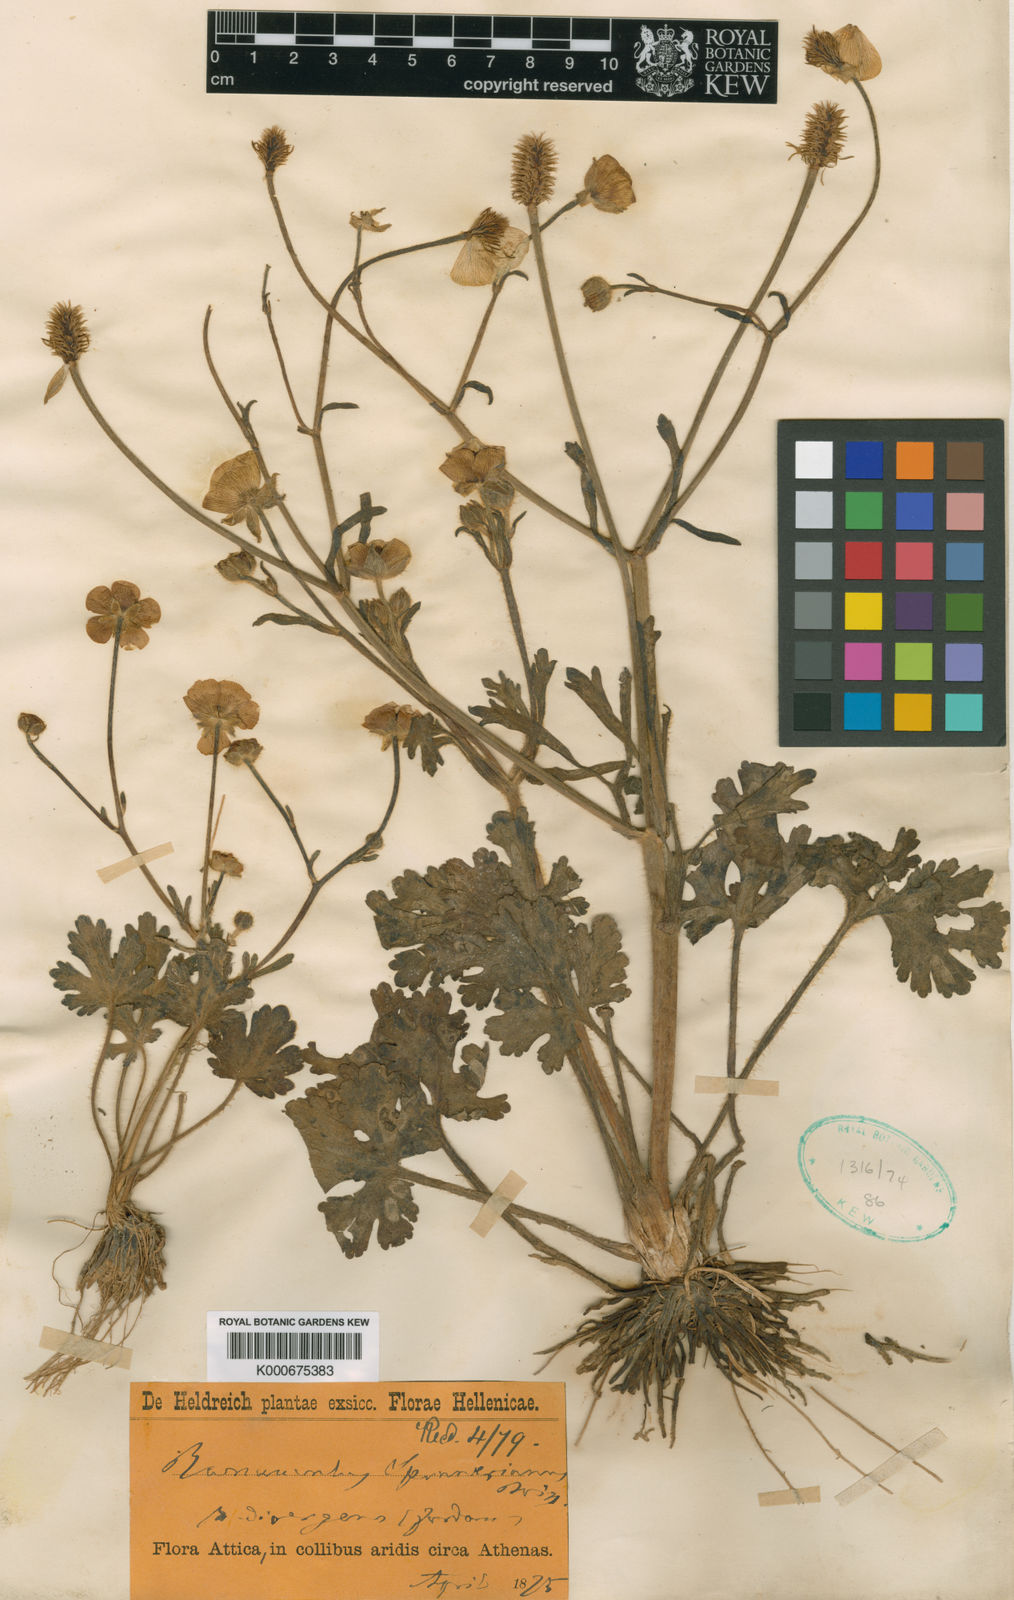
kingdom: Plantae
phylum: Tracheophyta
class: Magnoliopsida
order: Ranunculales
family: Ranunculaceae
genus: Ranunculus
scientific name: Ranunculus sprunerianus
